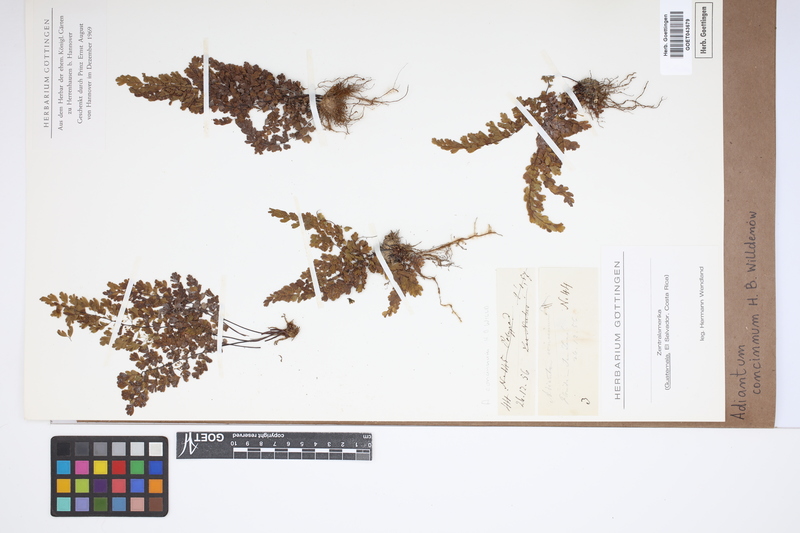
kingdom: Plantae
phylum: Tracheophyta
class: Polypodiopsida
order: Polypodiales
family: Pteridaceae
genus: Adiantum
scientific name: Adiantum concinnum
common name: Brittle maidenhair fern
